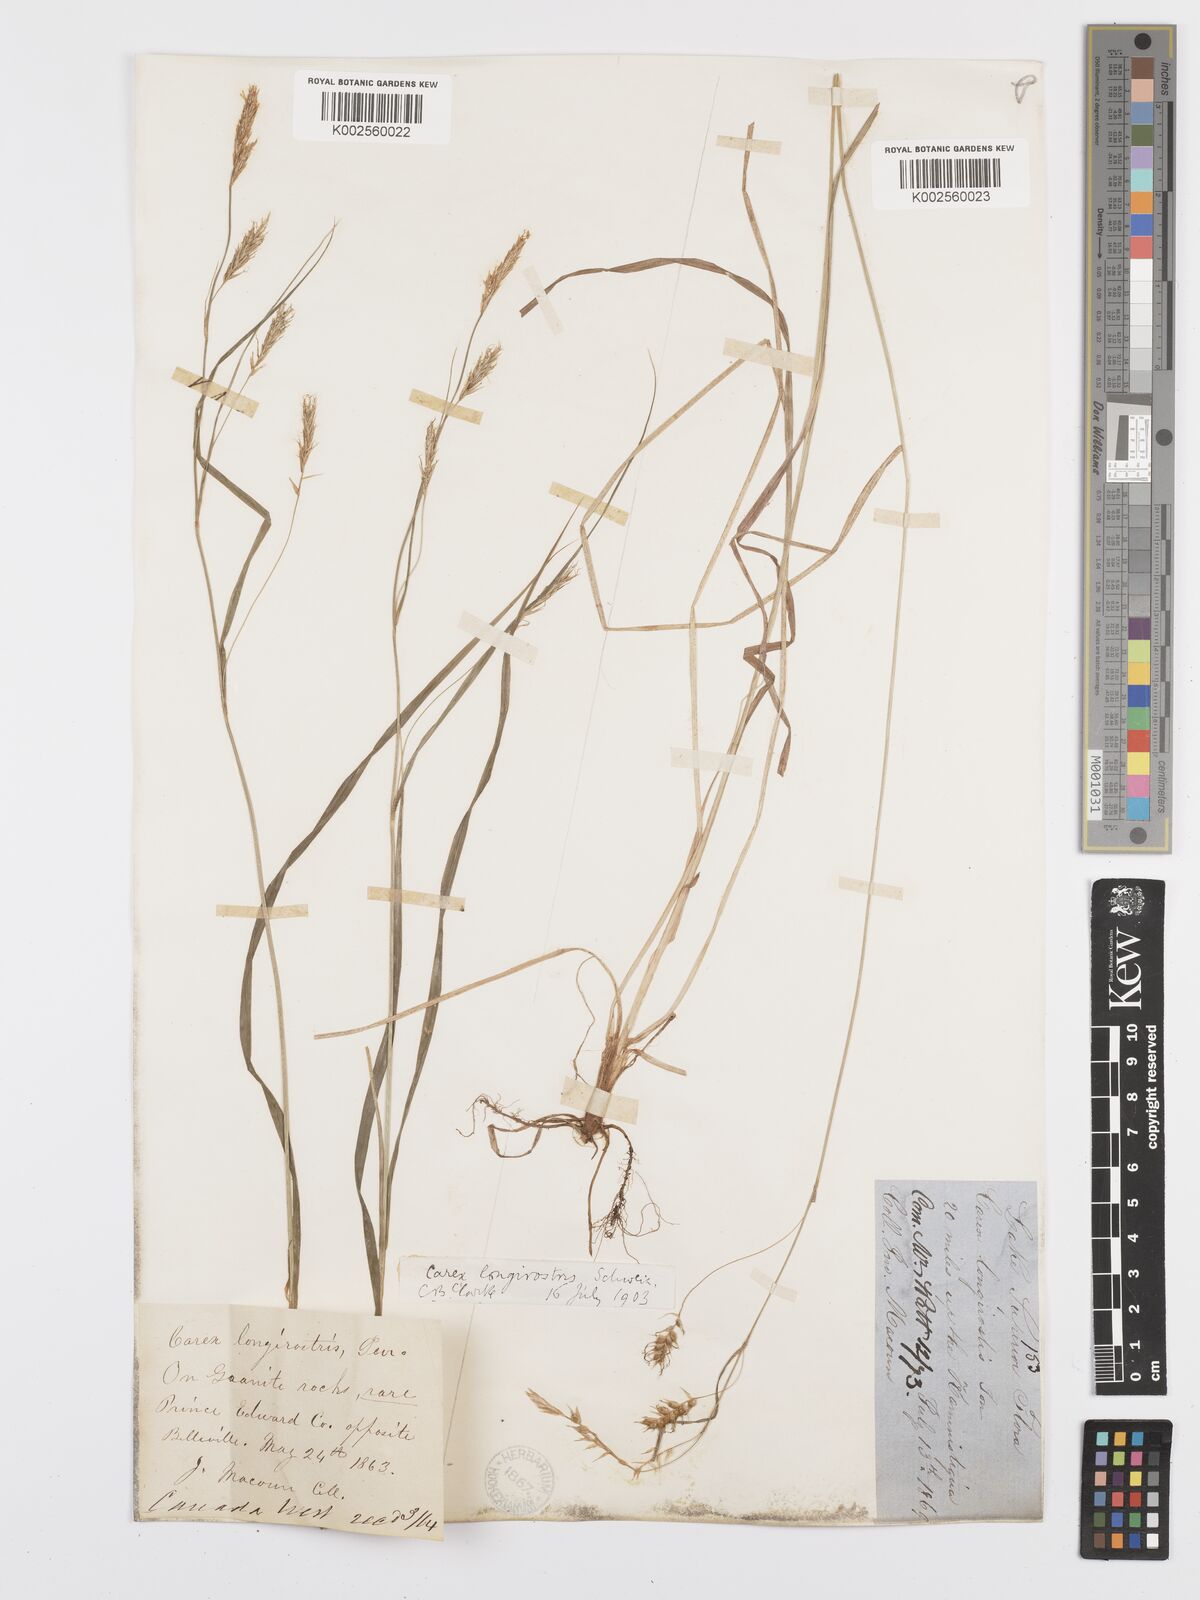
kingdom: Plantae
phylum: Tracheophyta
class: Liliopsida
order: Poales
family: Cyperaceae
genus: Carex
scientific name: Carex sprengelii
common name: Long-beaked sedge
